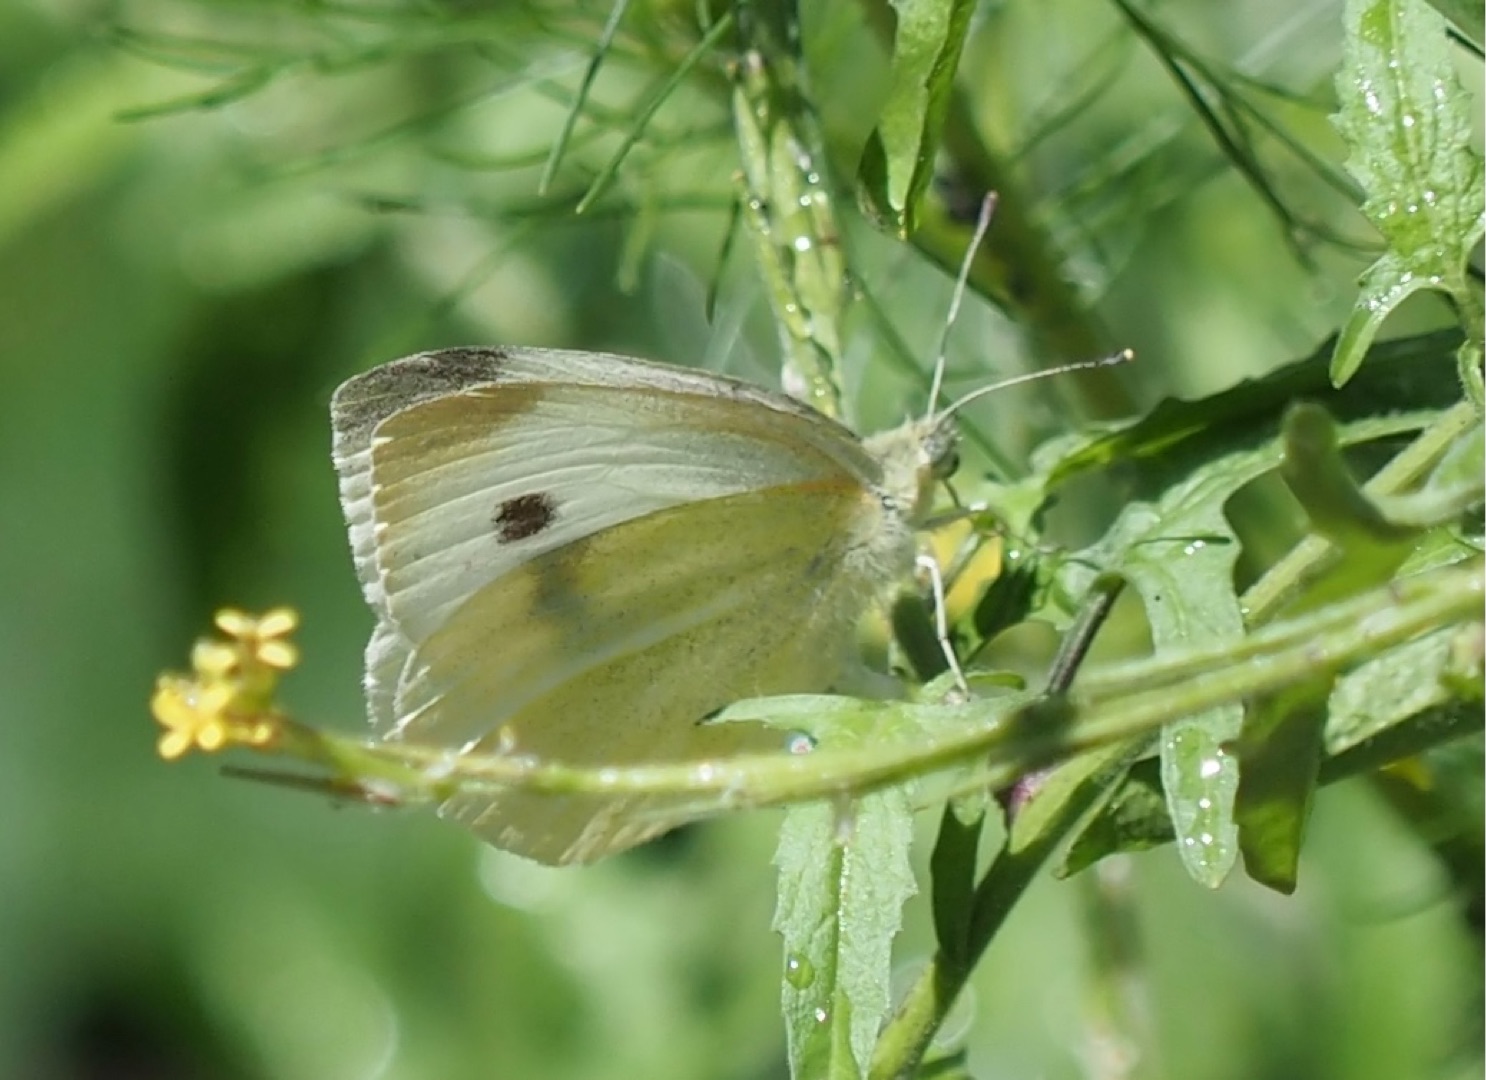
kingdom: Animalia
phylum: Arthropoda
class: Insecta
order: Lepidoptera
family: Pieridae
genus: Pieris
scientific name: Pieris rapae
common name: Lille kålsommerfugl
